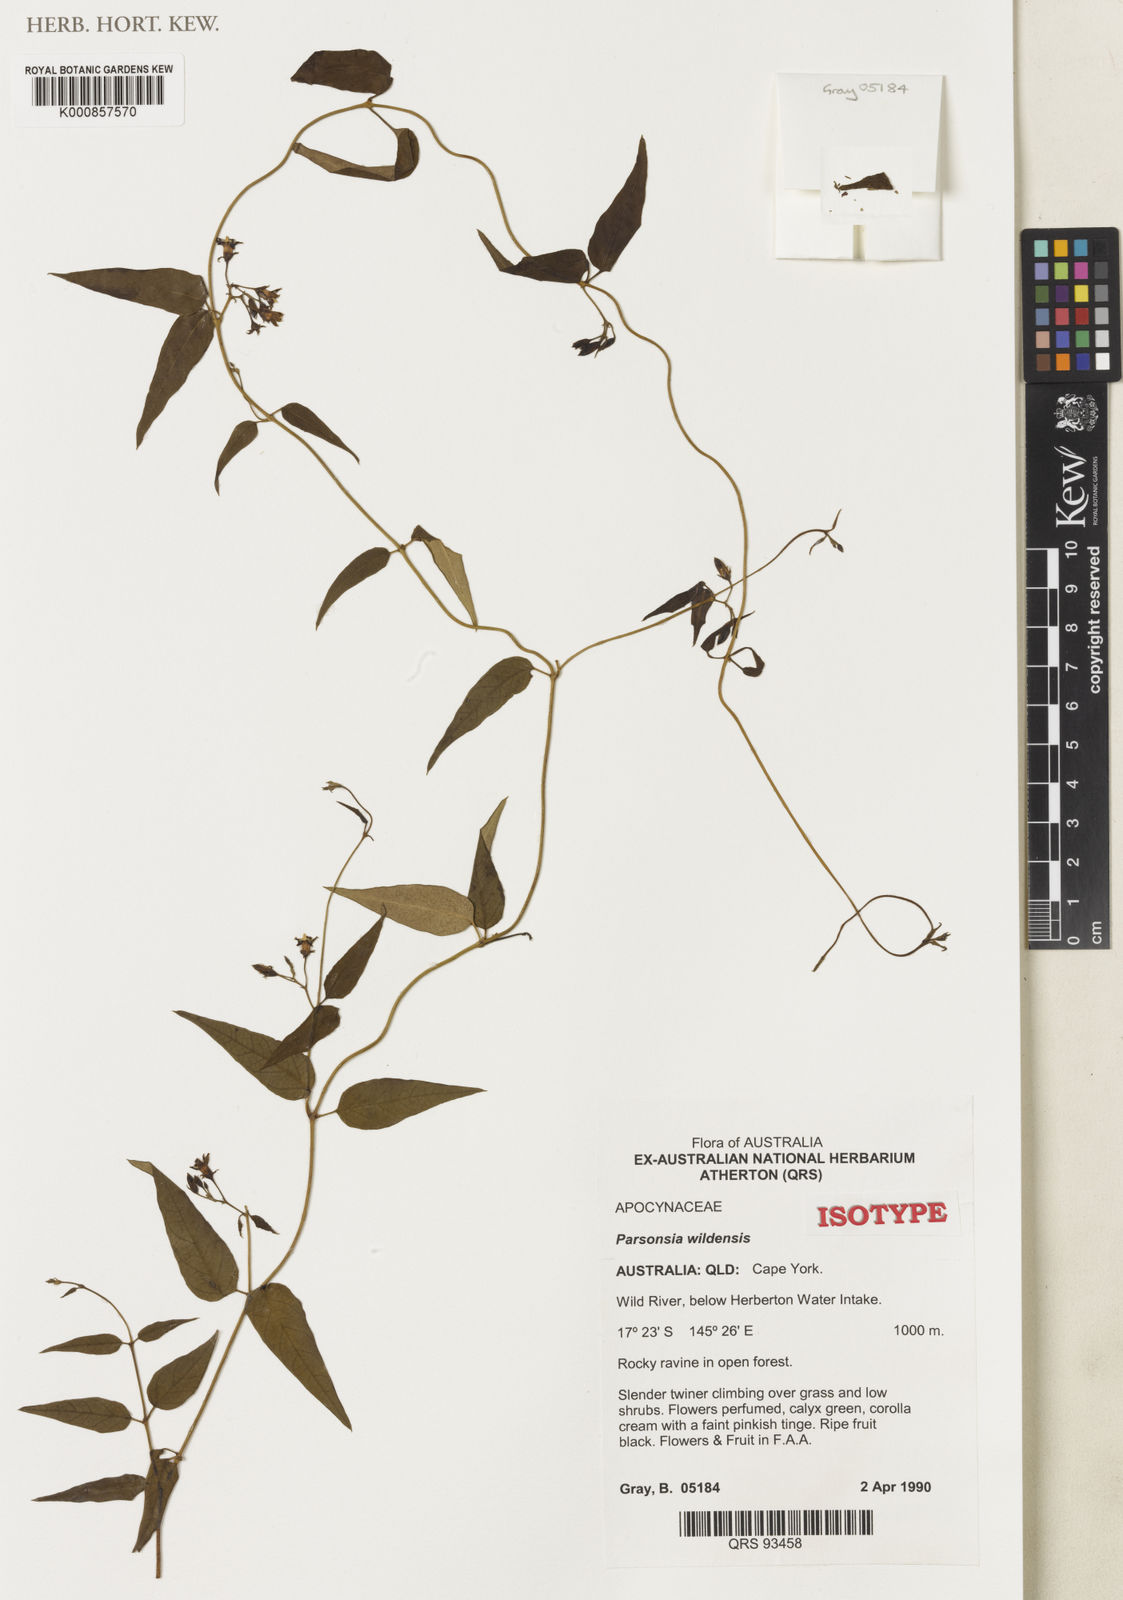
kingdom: Plantae
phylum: Tracheophyta
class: Magnoliopsida
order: Gentianales
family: Apocynaceae
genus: Parsonsia
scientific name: Parsonsia wildensis
